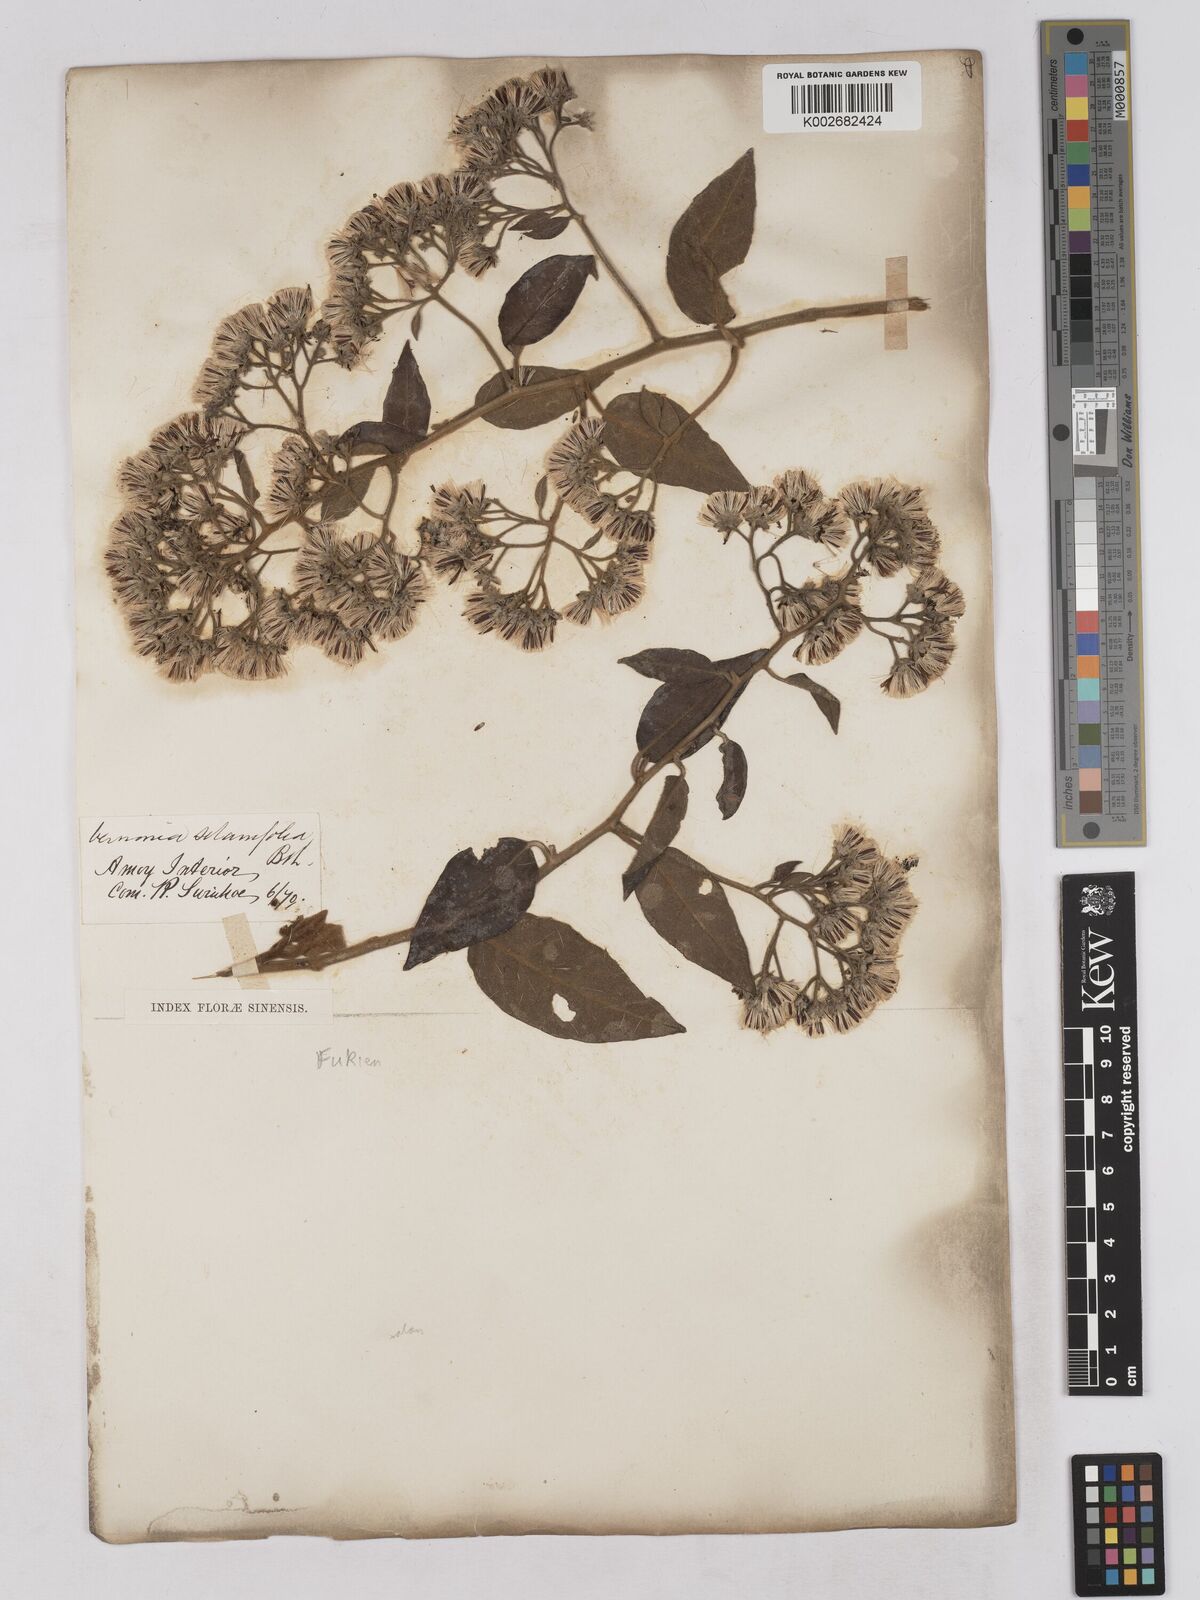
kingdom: Plantae
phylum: Tracheophyta
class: Magnoliopsida
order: Asterales
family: Asteraceae
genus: Strobocalyx
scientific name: Strobocalyx solanifolia
